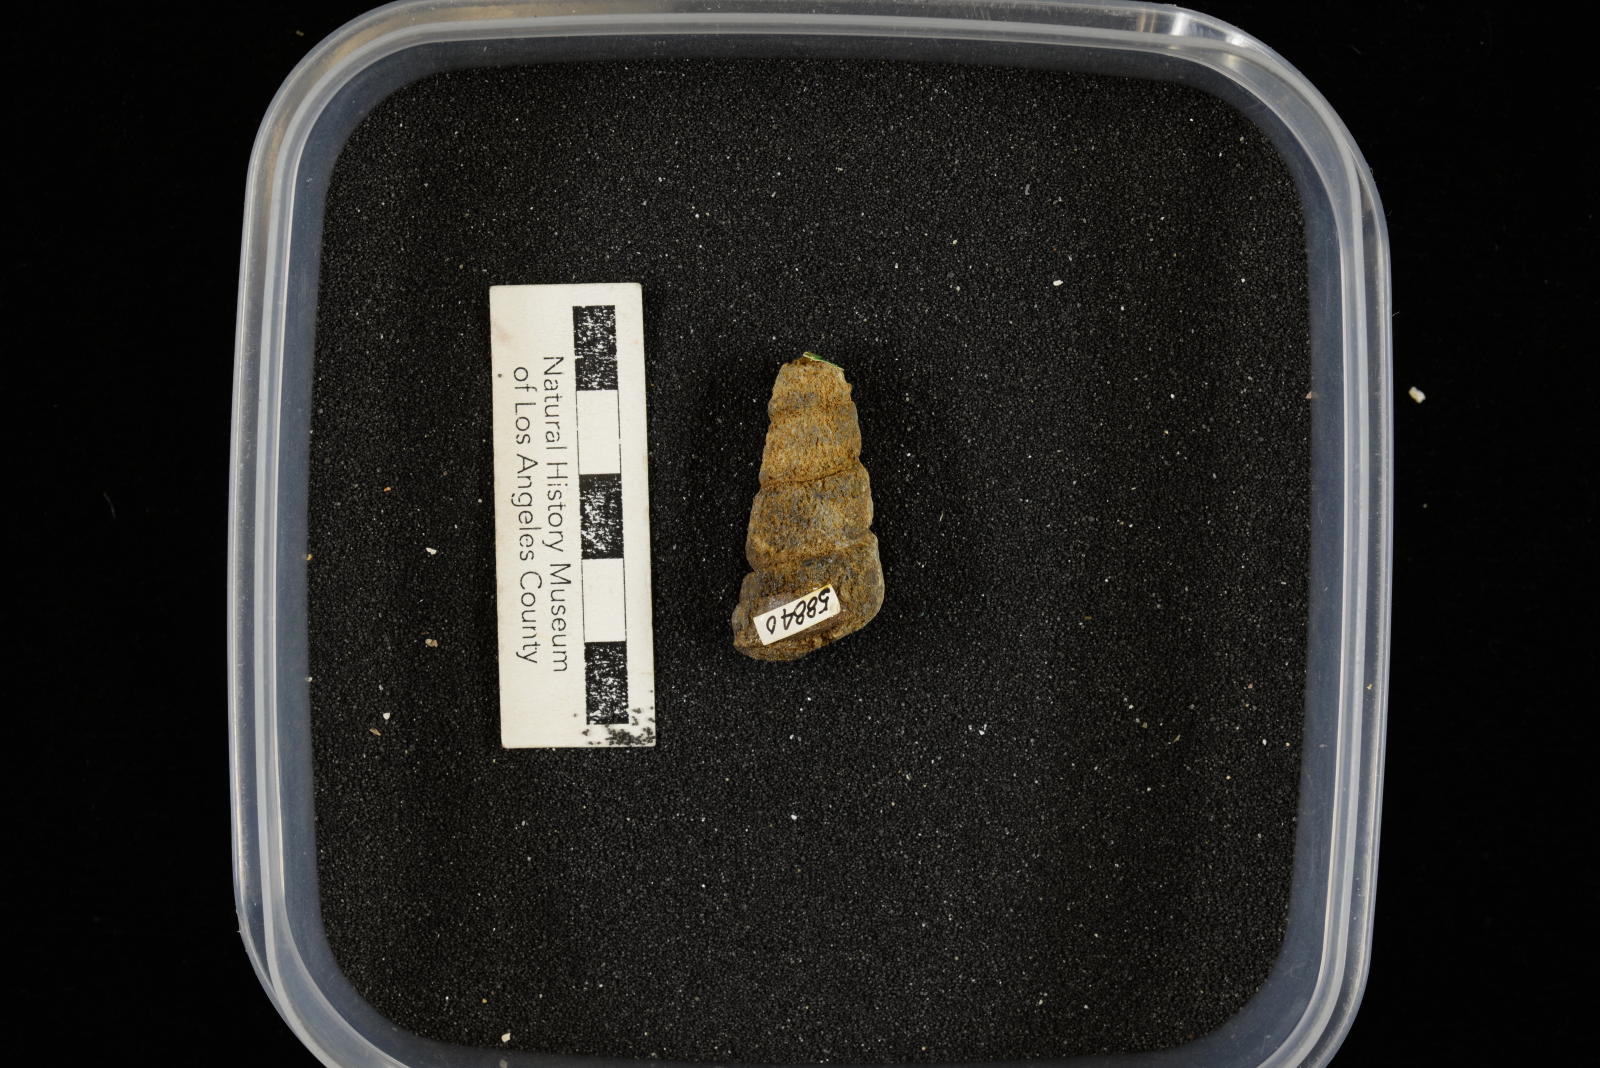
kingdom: Animalia
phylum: Mollusca
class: Gastropoda
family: Turritellidae
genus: Turritella
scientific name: Turritella chaneyi
